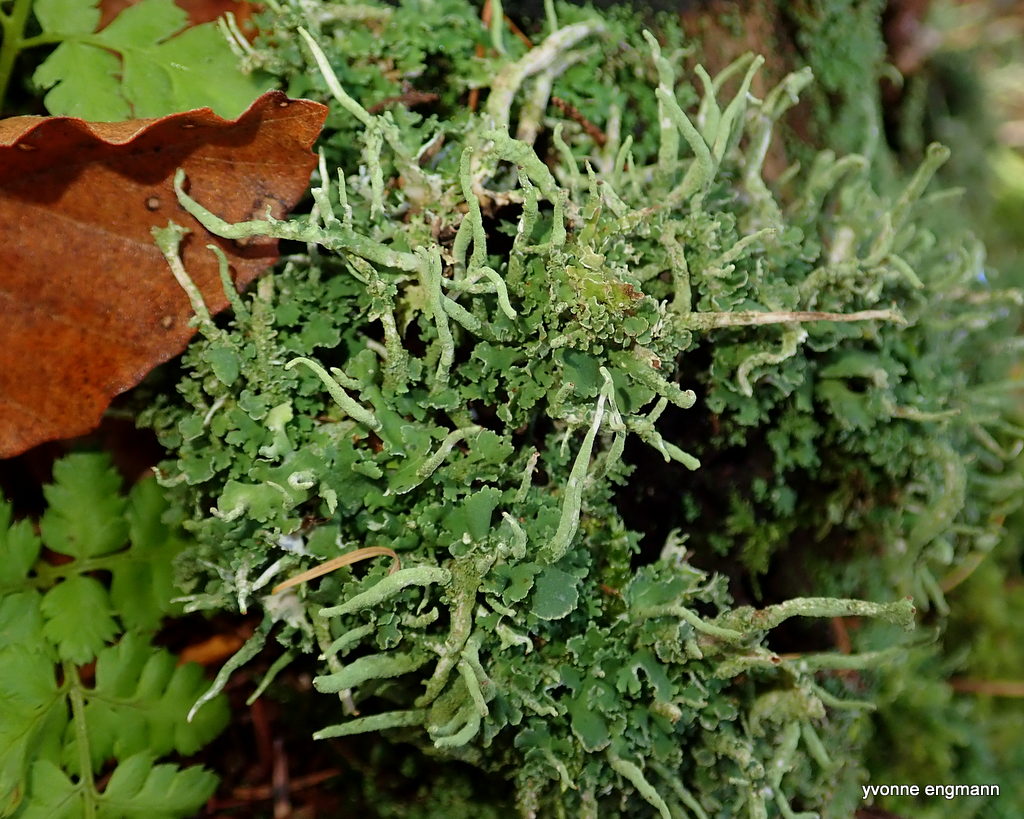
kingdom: Fungi
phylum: Ascomycota
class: Lecanoromycetes
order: Lecanorales
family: Cladoniaceae
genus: Cladonia
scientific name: Cladonia ochrochlora
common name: stød-bægerlav
